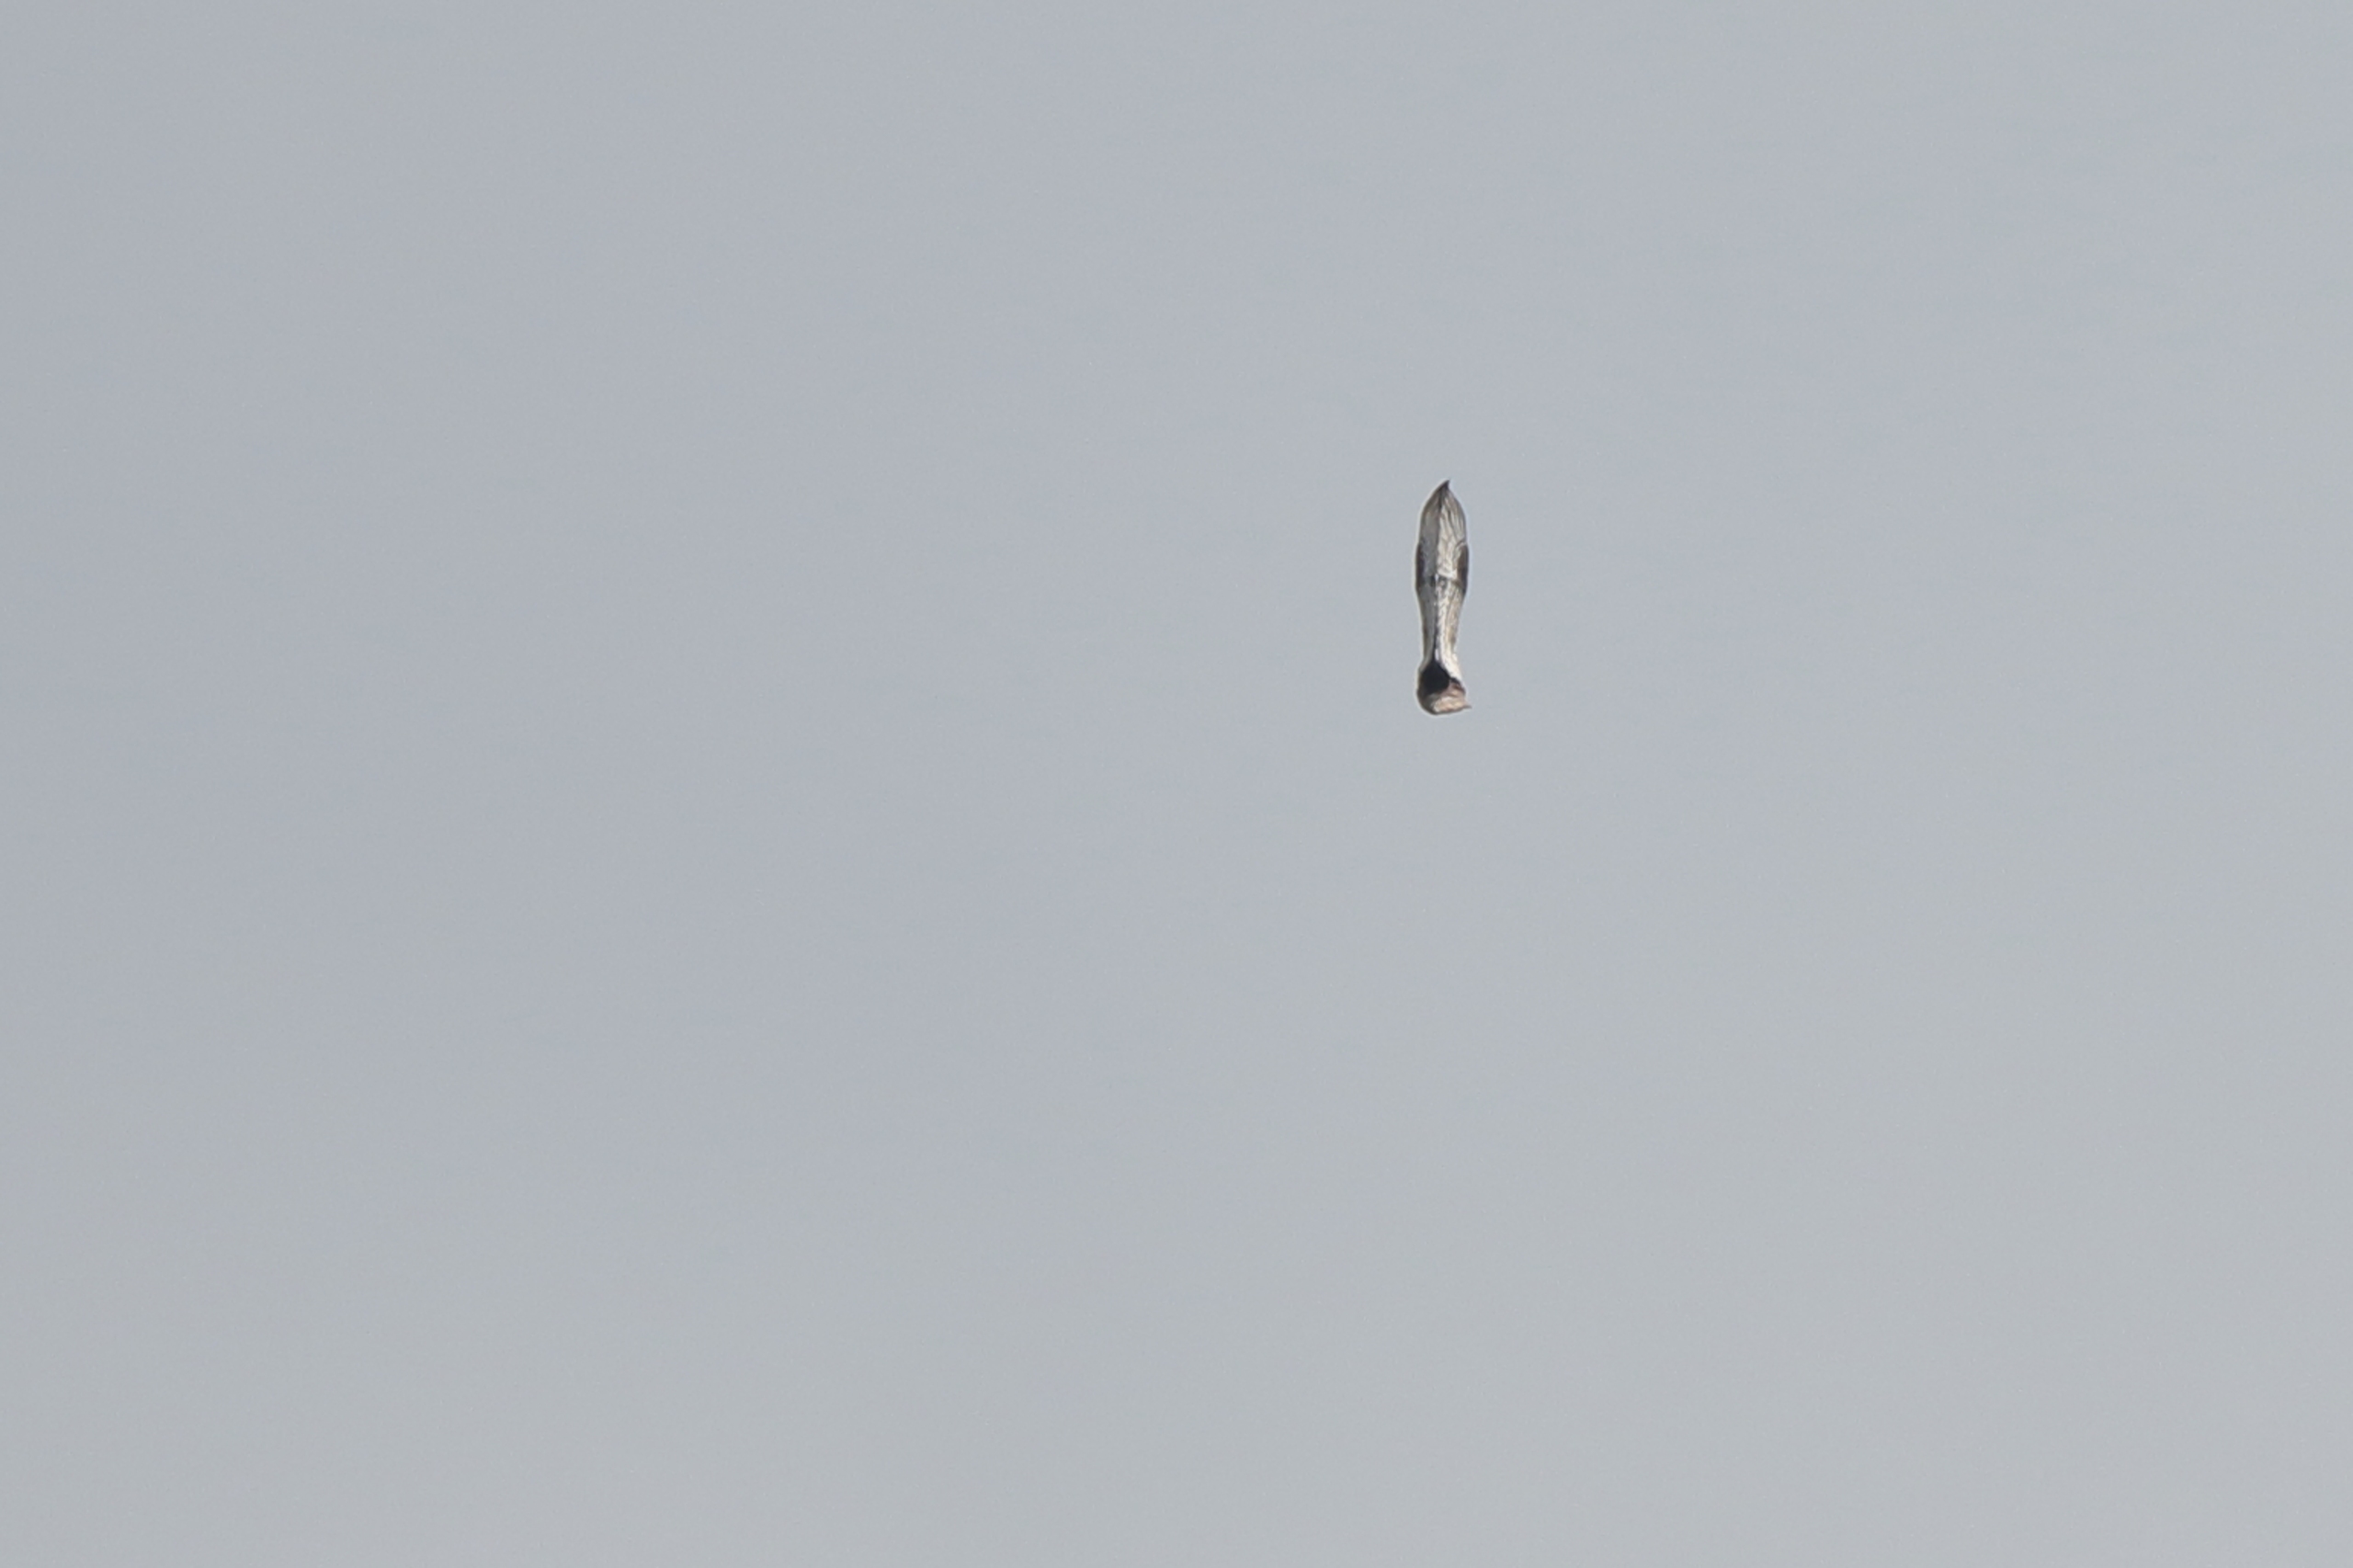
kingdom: Animalia
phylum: Chordata
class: Aves
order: Accipitriformes
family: Accipitridae
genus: Pernis
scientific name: Pernis apivorus
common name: Hvepsevåge
